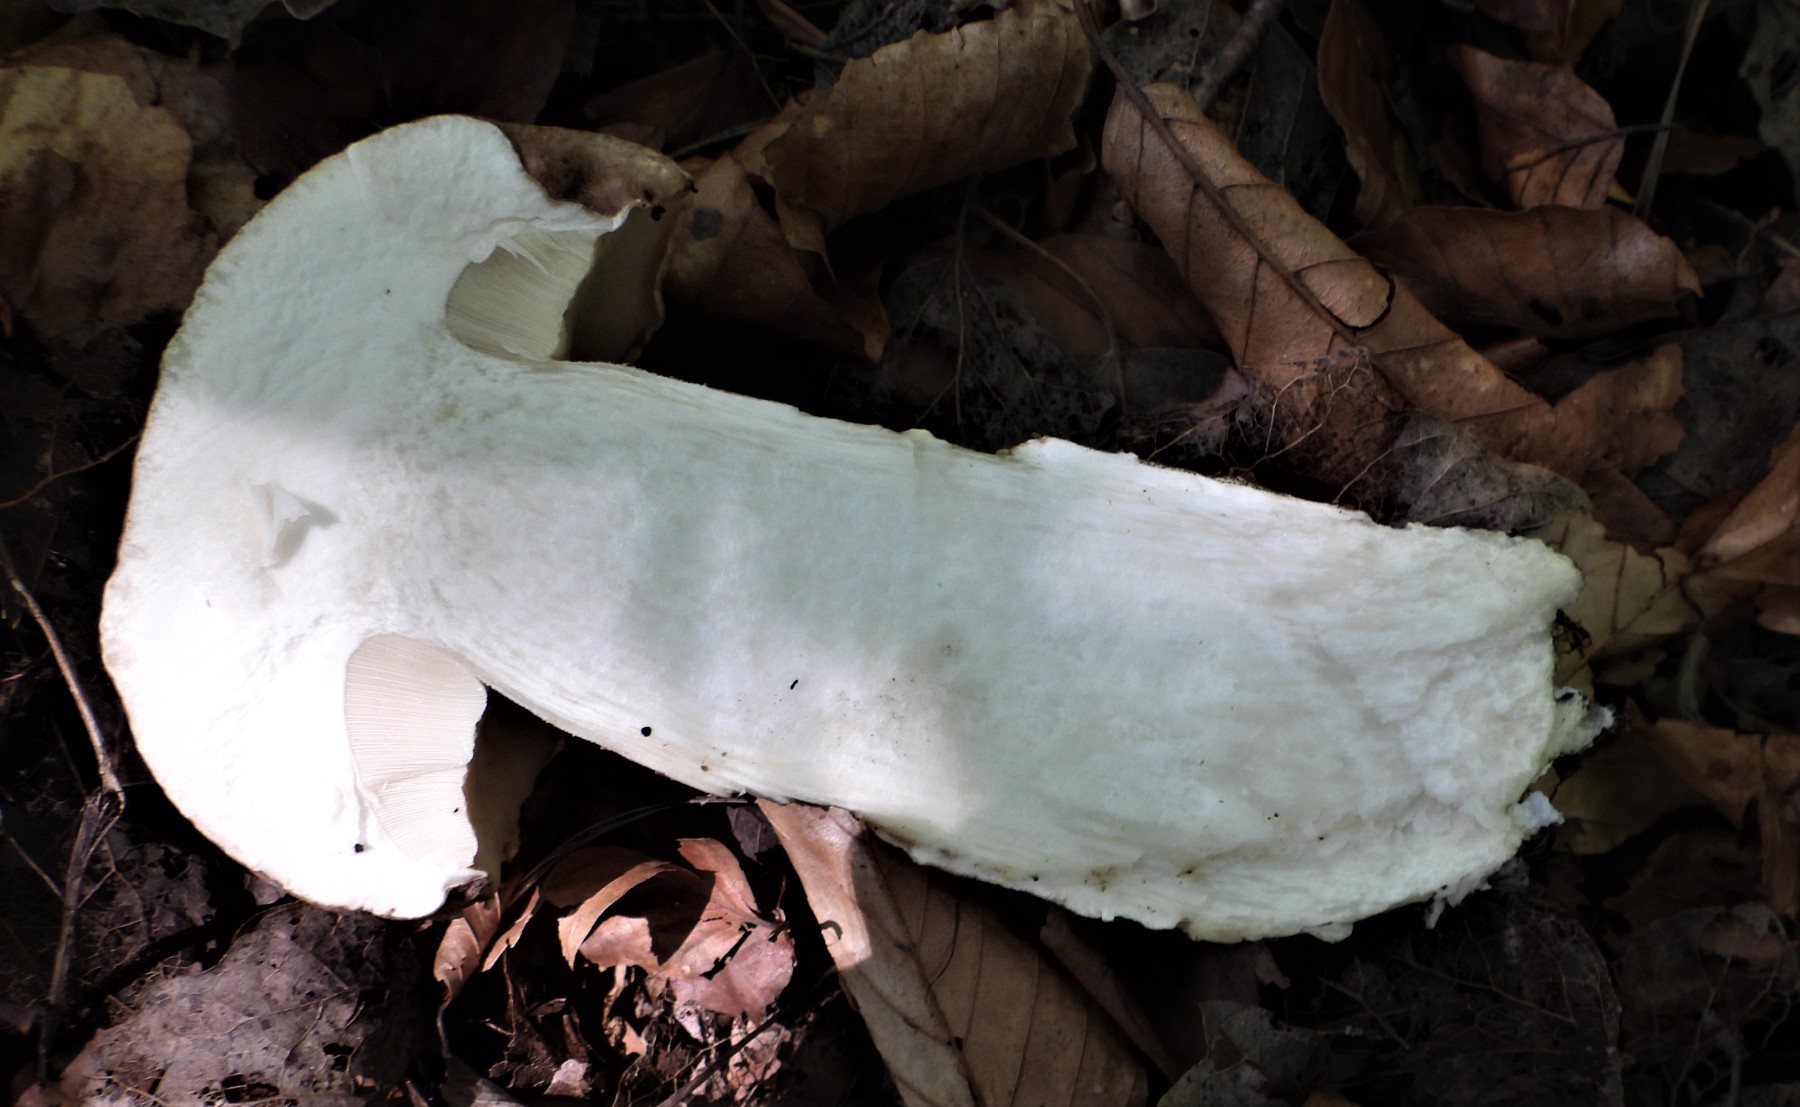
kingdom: Fungi
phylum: Basidiomycota
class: Agaricomycetes
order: Boletales
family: Boletaceae
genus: Leccinum
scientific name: Leccinum duriusculum
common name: poppel-skælrørhat
